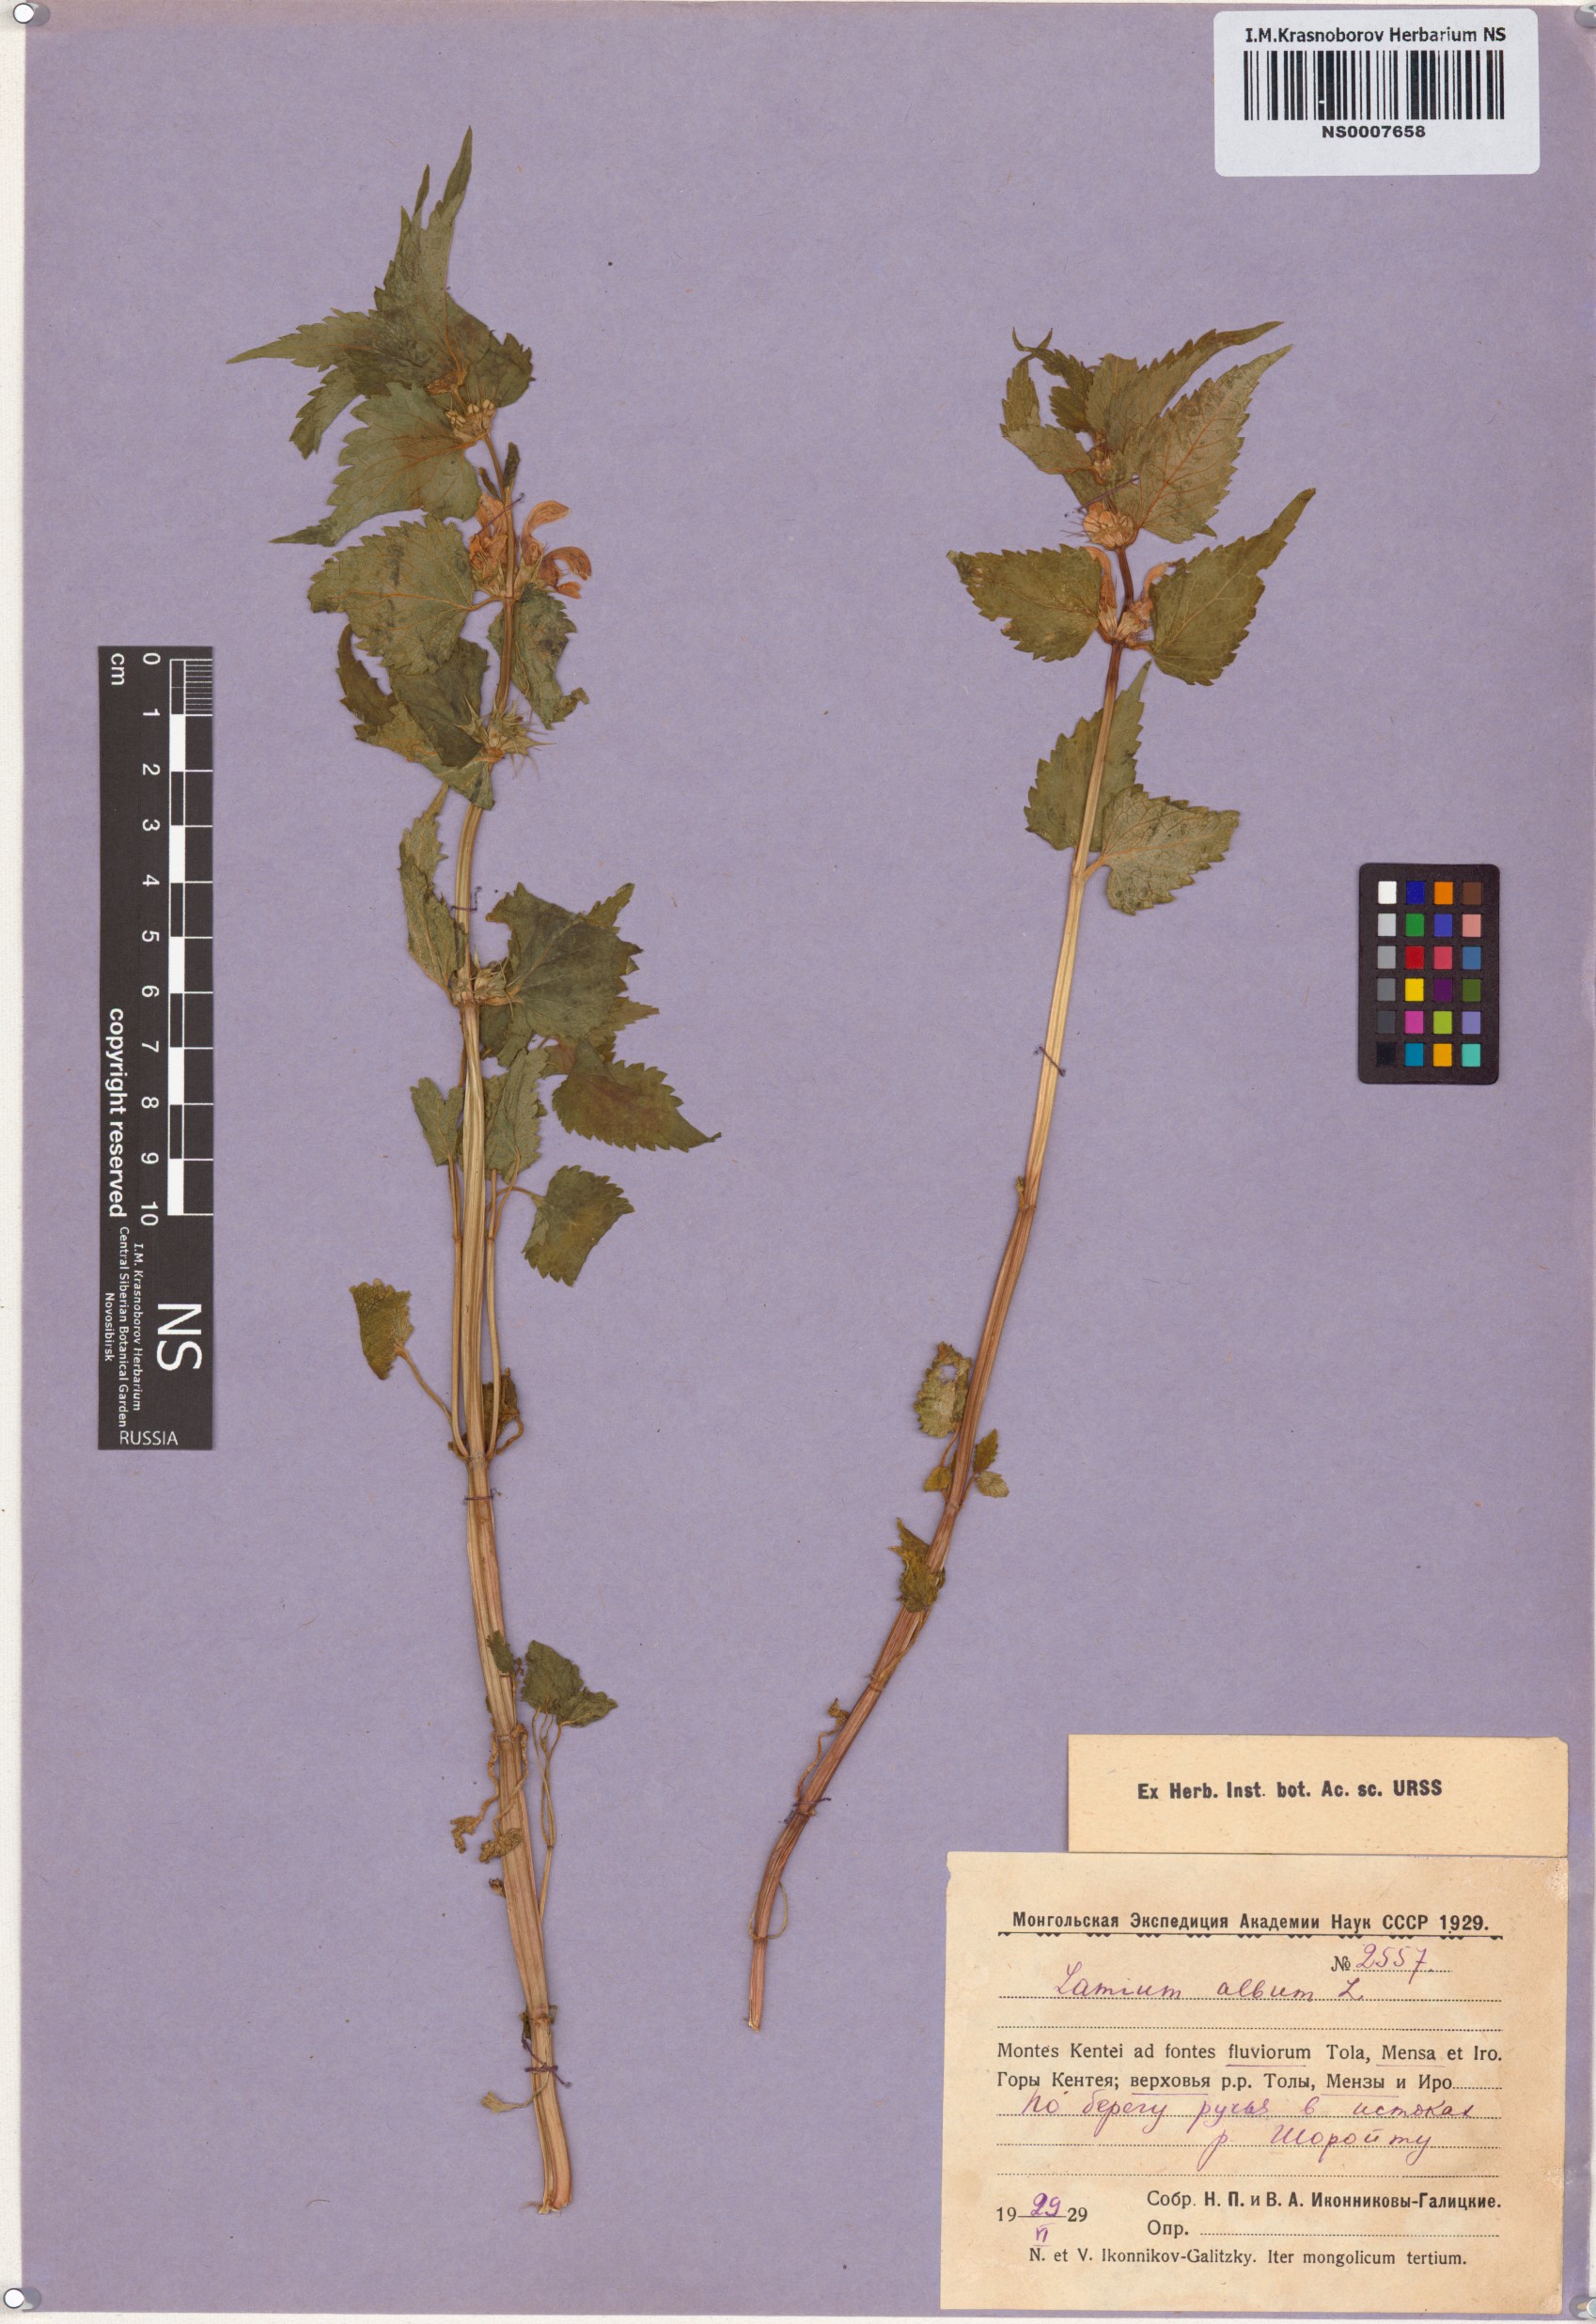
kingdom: Plantae
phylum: Tracheophyta
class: Magnoliopsida
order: Lamiales
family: Lamiaceae
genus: Lamium
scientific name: Lamium album
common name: White dead-nettle
